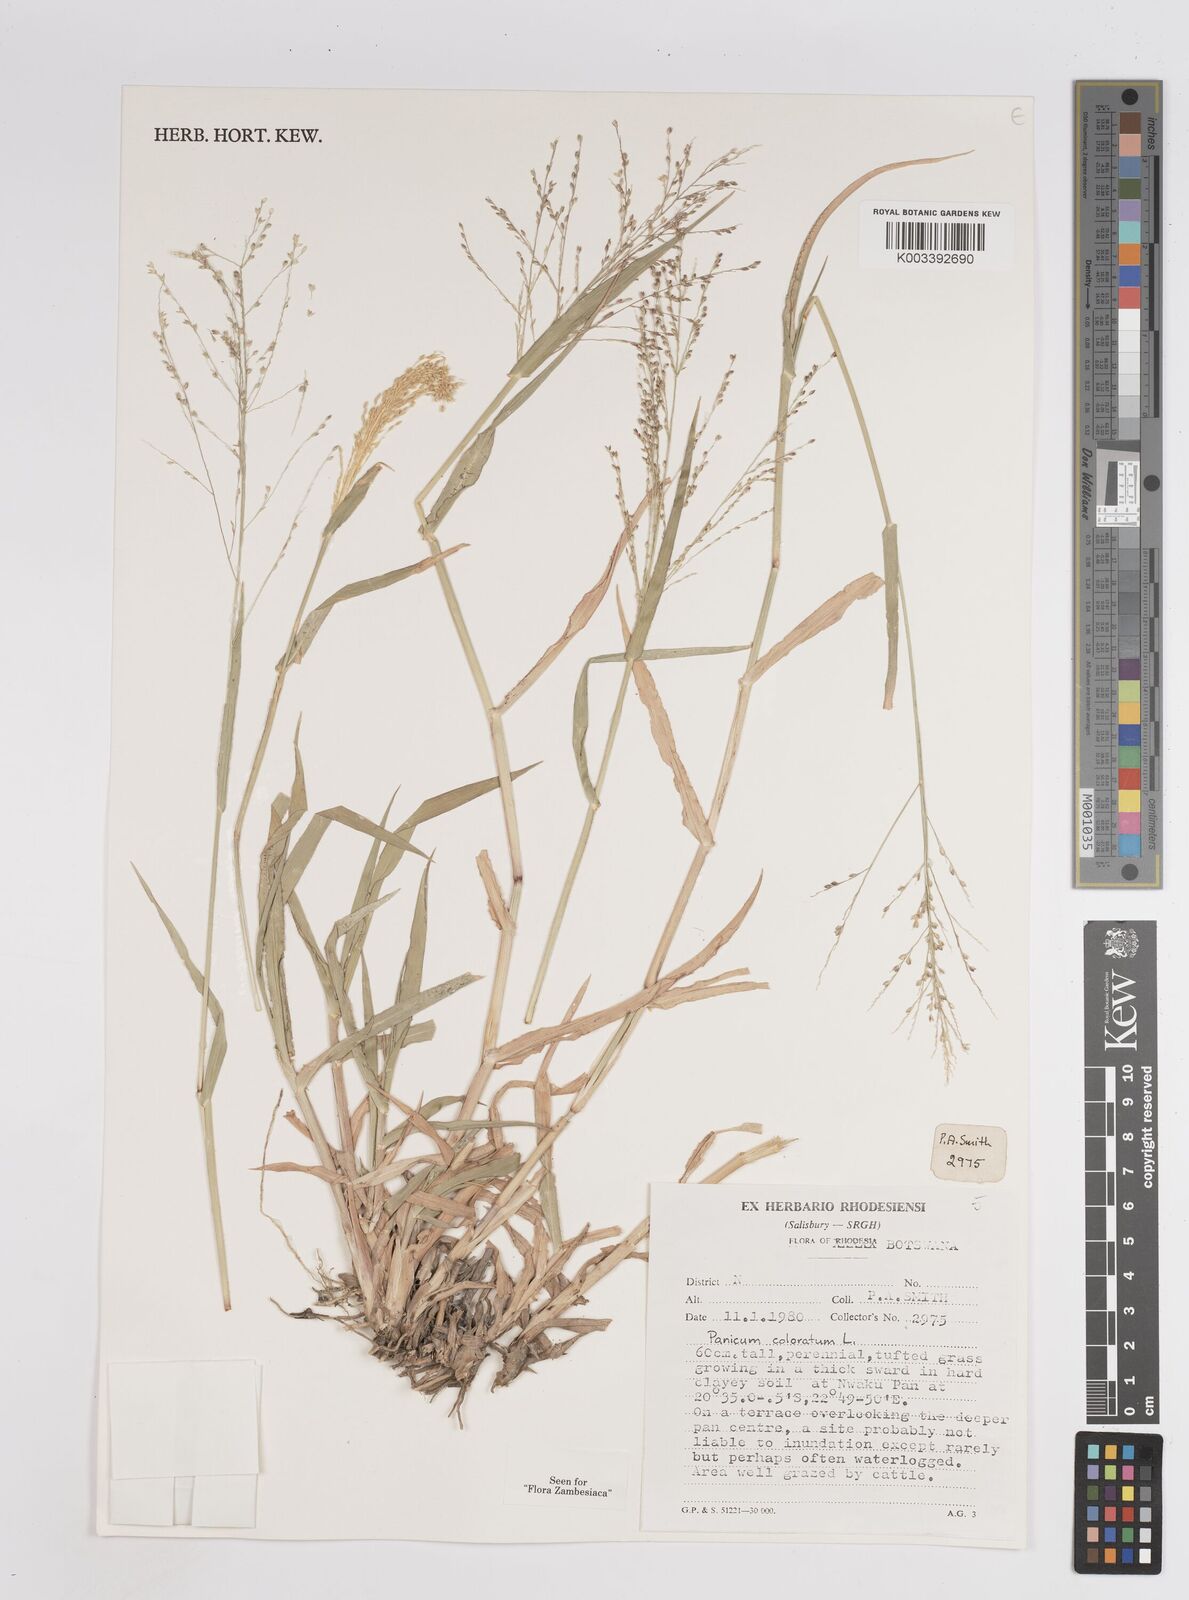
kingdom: Plantae
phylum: Tracheophyta
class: Liliopsida
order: Poales
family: Poaceae
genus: Panicum
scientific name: Panicum coloratum
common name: Kleingrass
